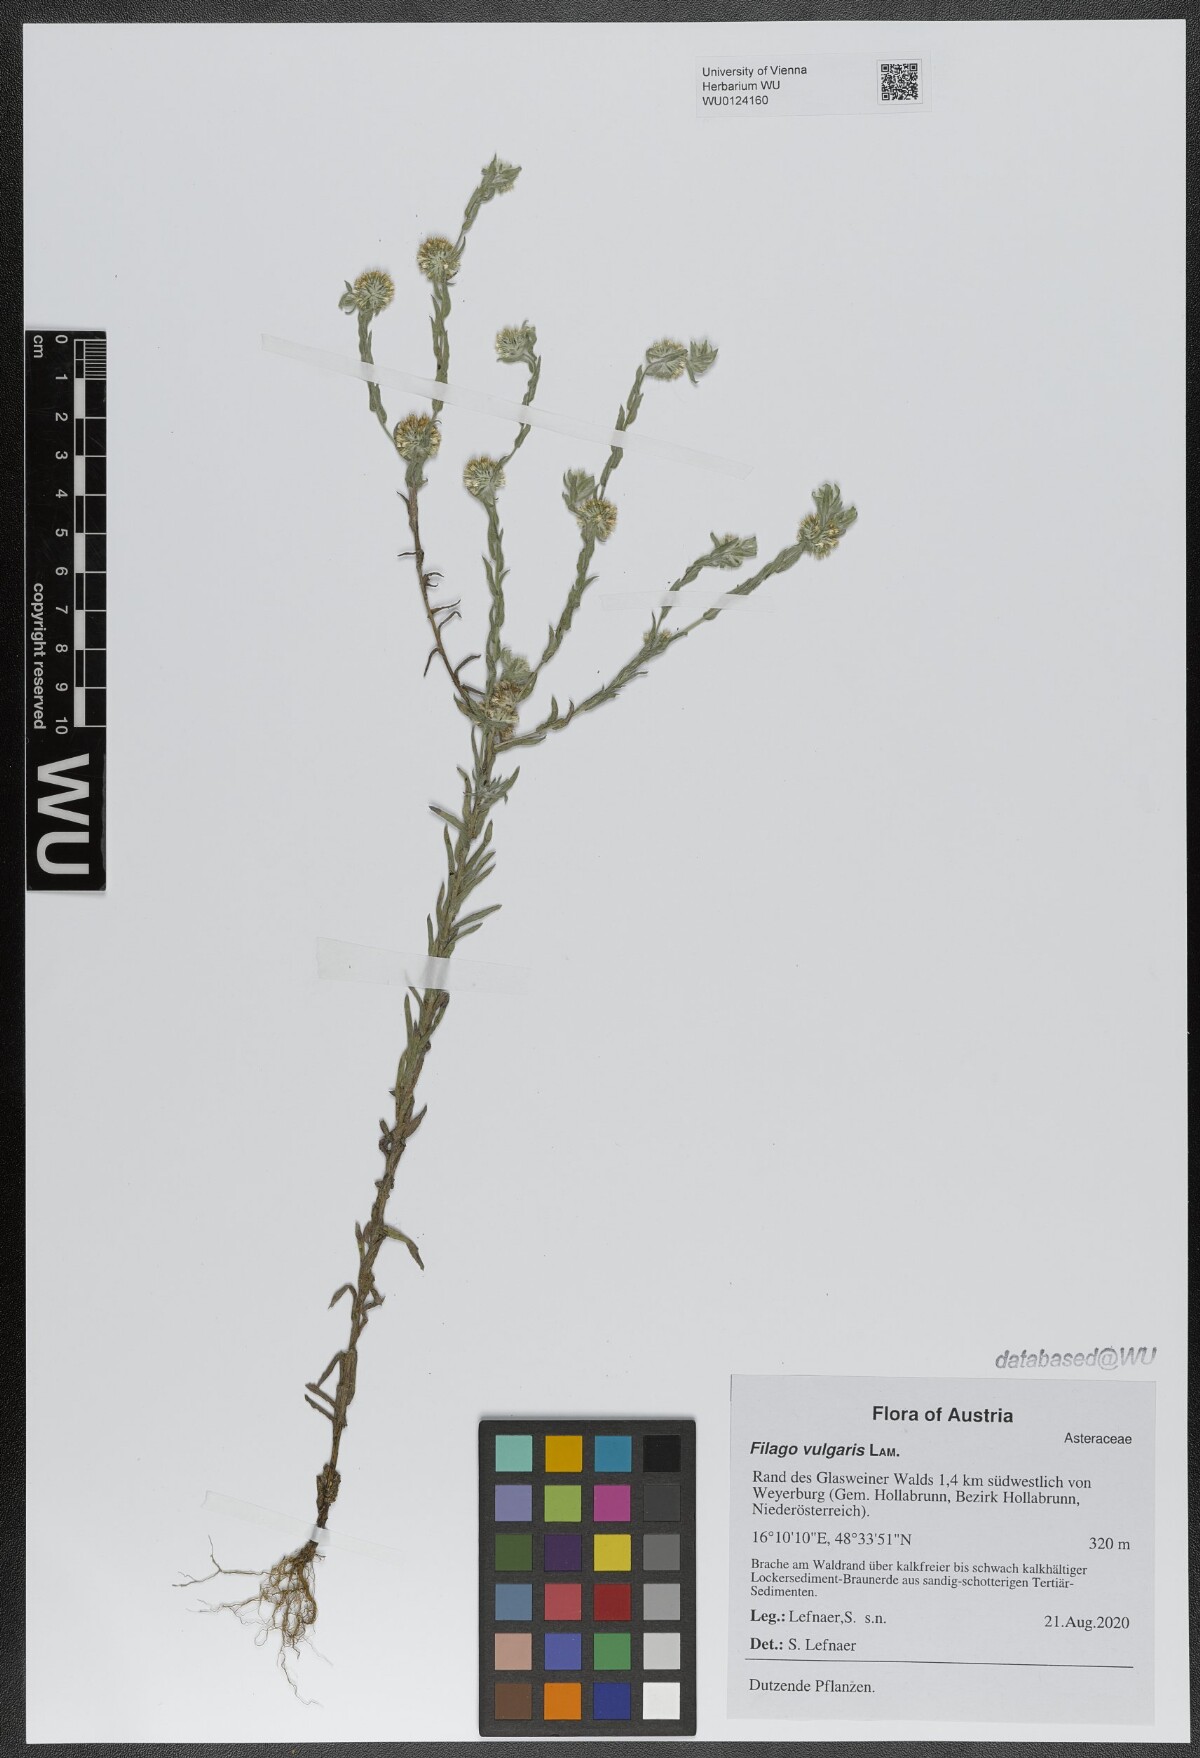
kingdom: Plantae
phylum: Tracheophyta
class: Magnoliopsida
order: Asterales
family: Asteraceae
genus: Filago
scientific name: Filago germanica
